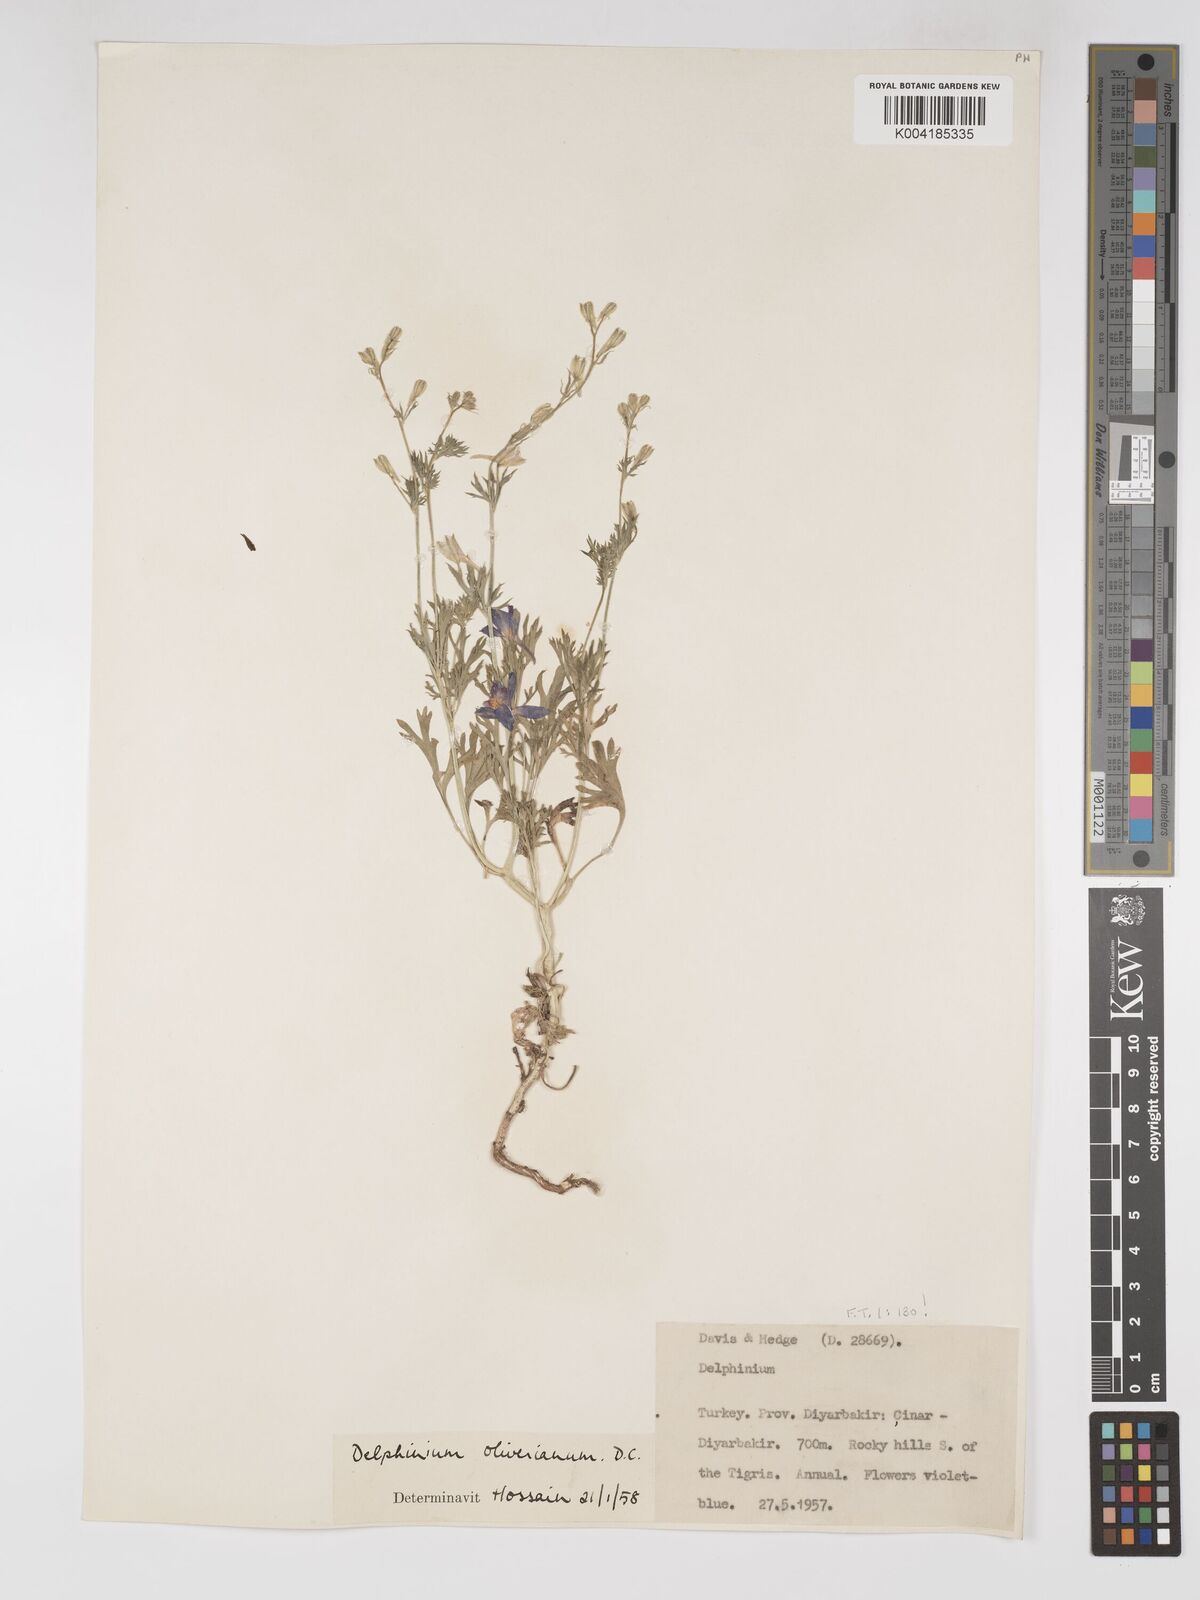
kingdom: Plantae
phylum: Tracheophyta
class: Magnoliopsida
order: Ranunculales
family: Ranunculaceae
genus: Delphinium
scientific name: Delphinium oliverianum
